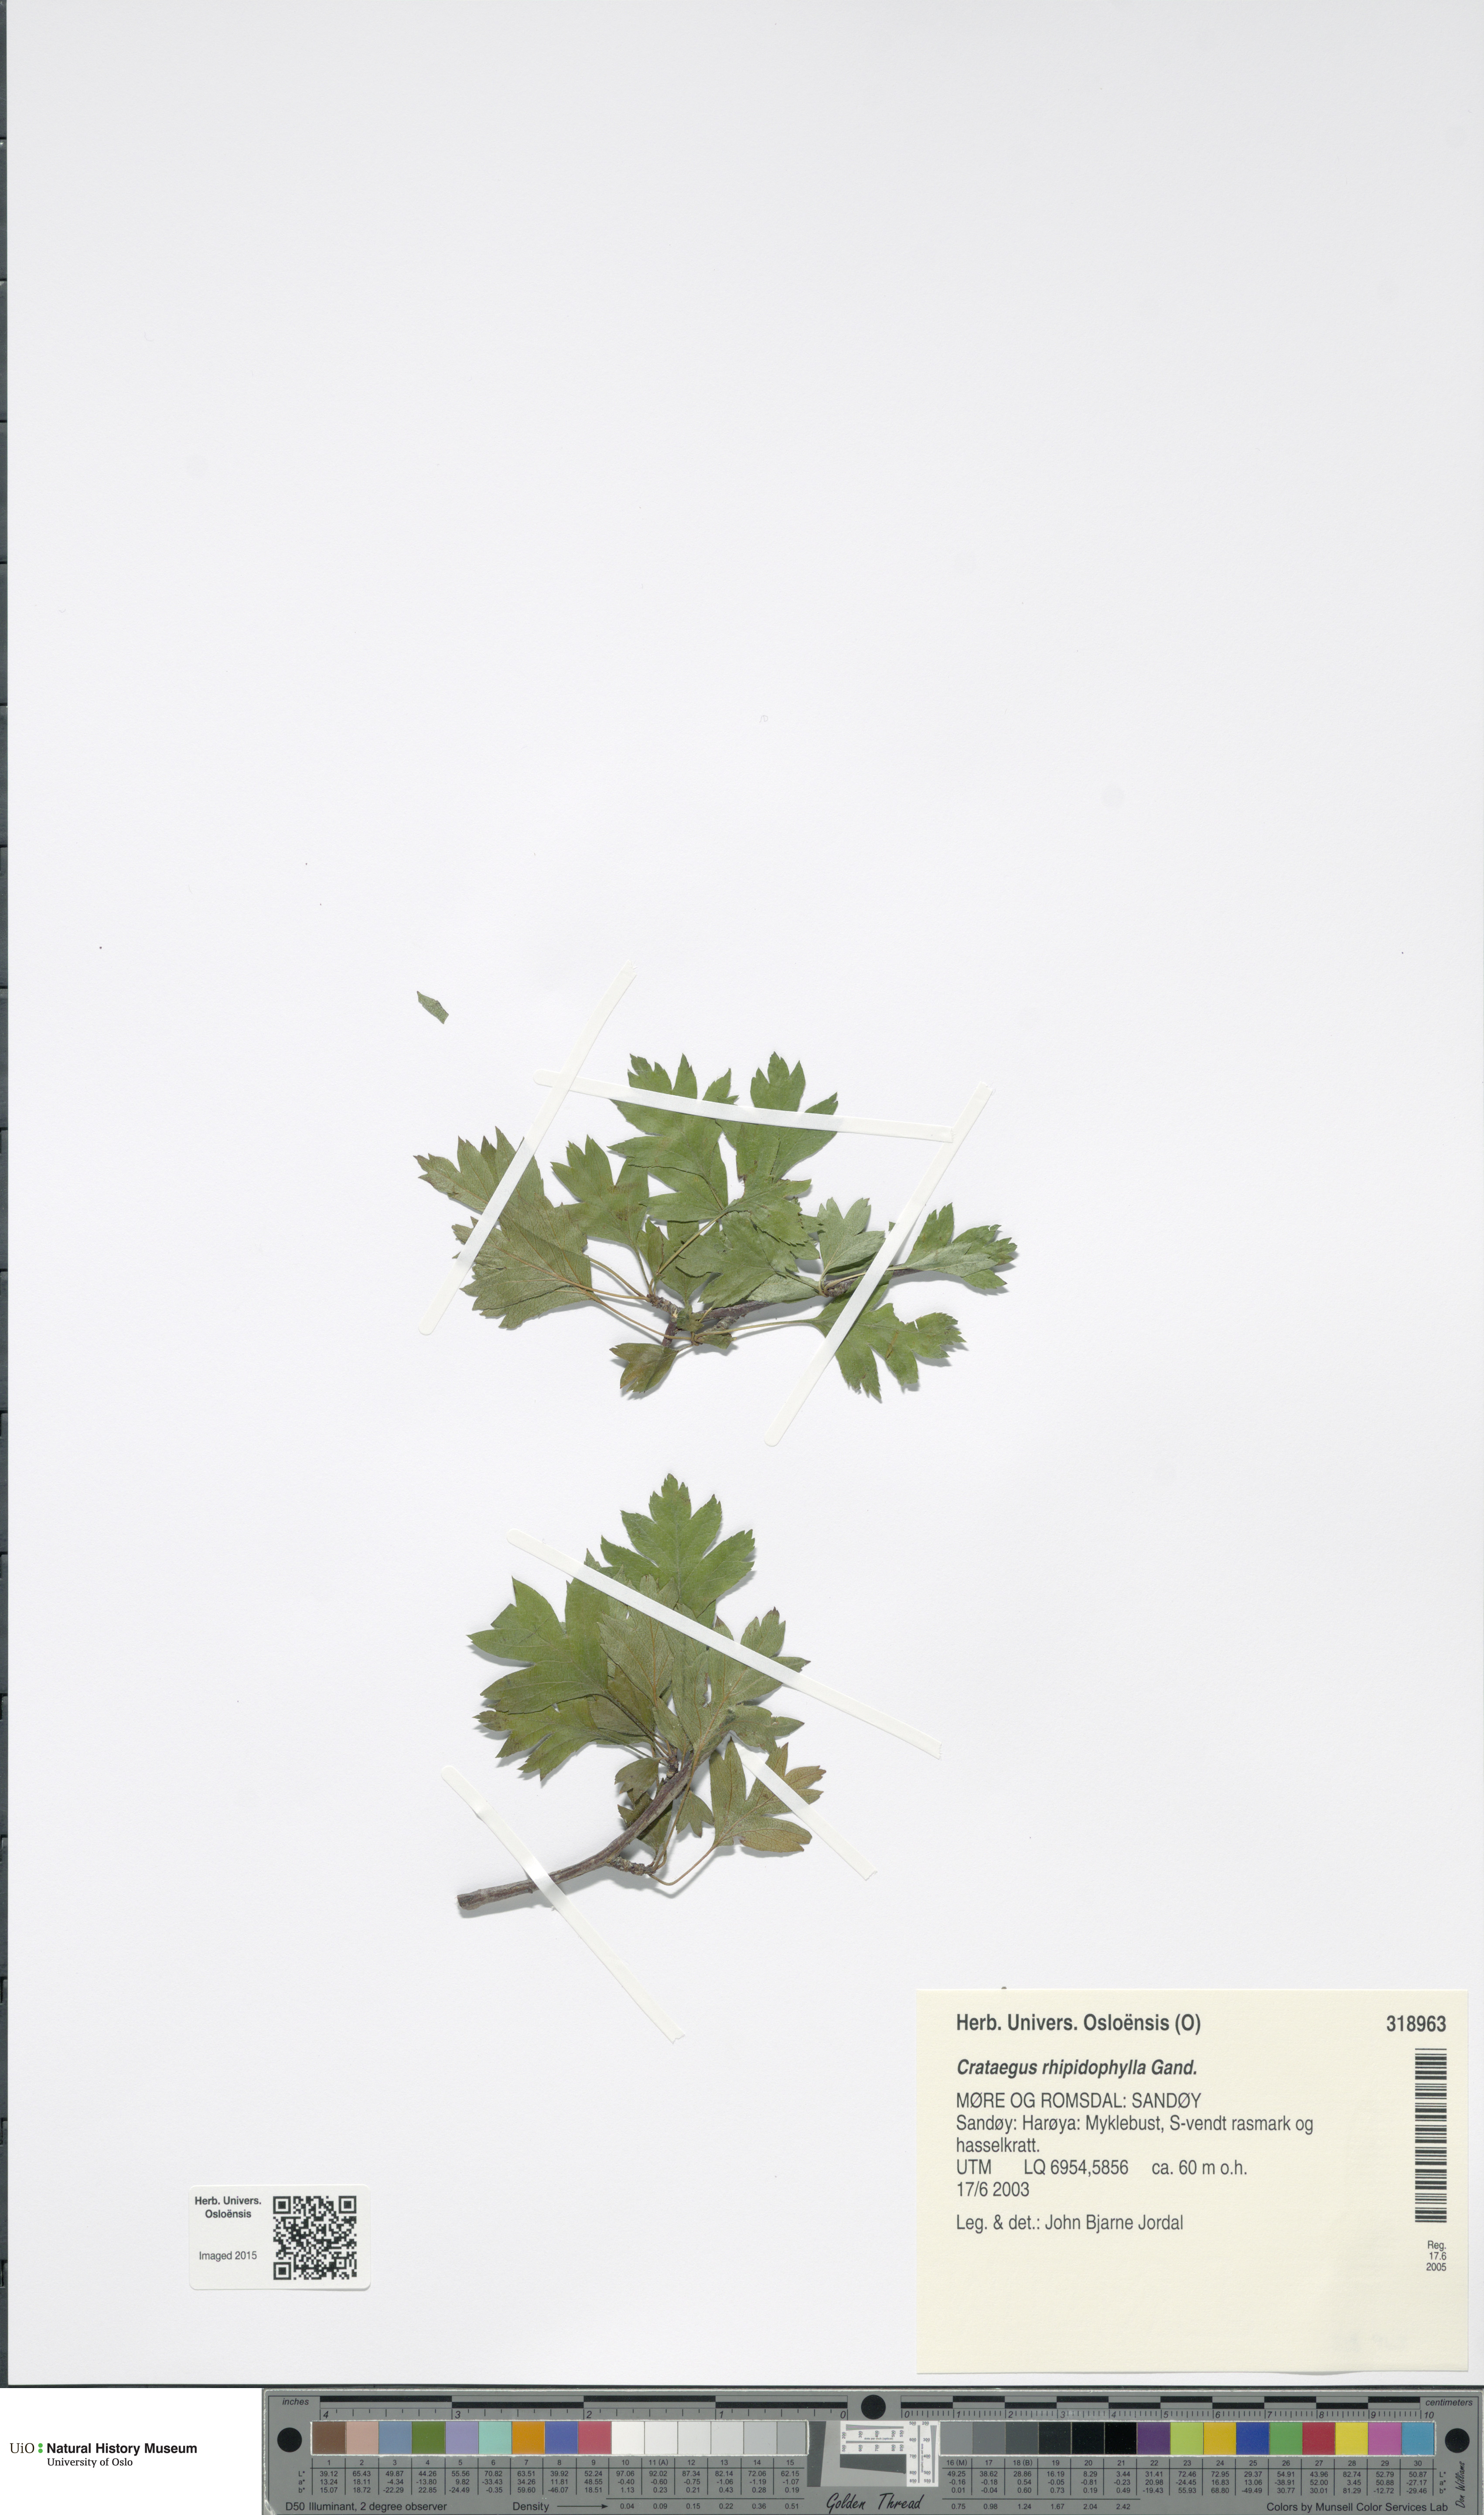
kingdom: Plantae
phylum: Tracheophyta
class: Magnoliopsida
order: Rosales
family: Rosaceae
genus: Crataegus
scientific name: Crataegus rhipidophylla
